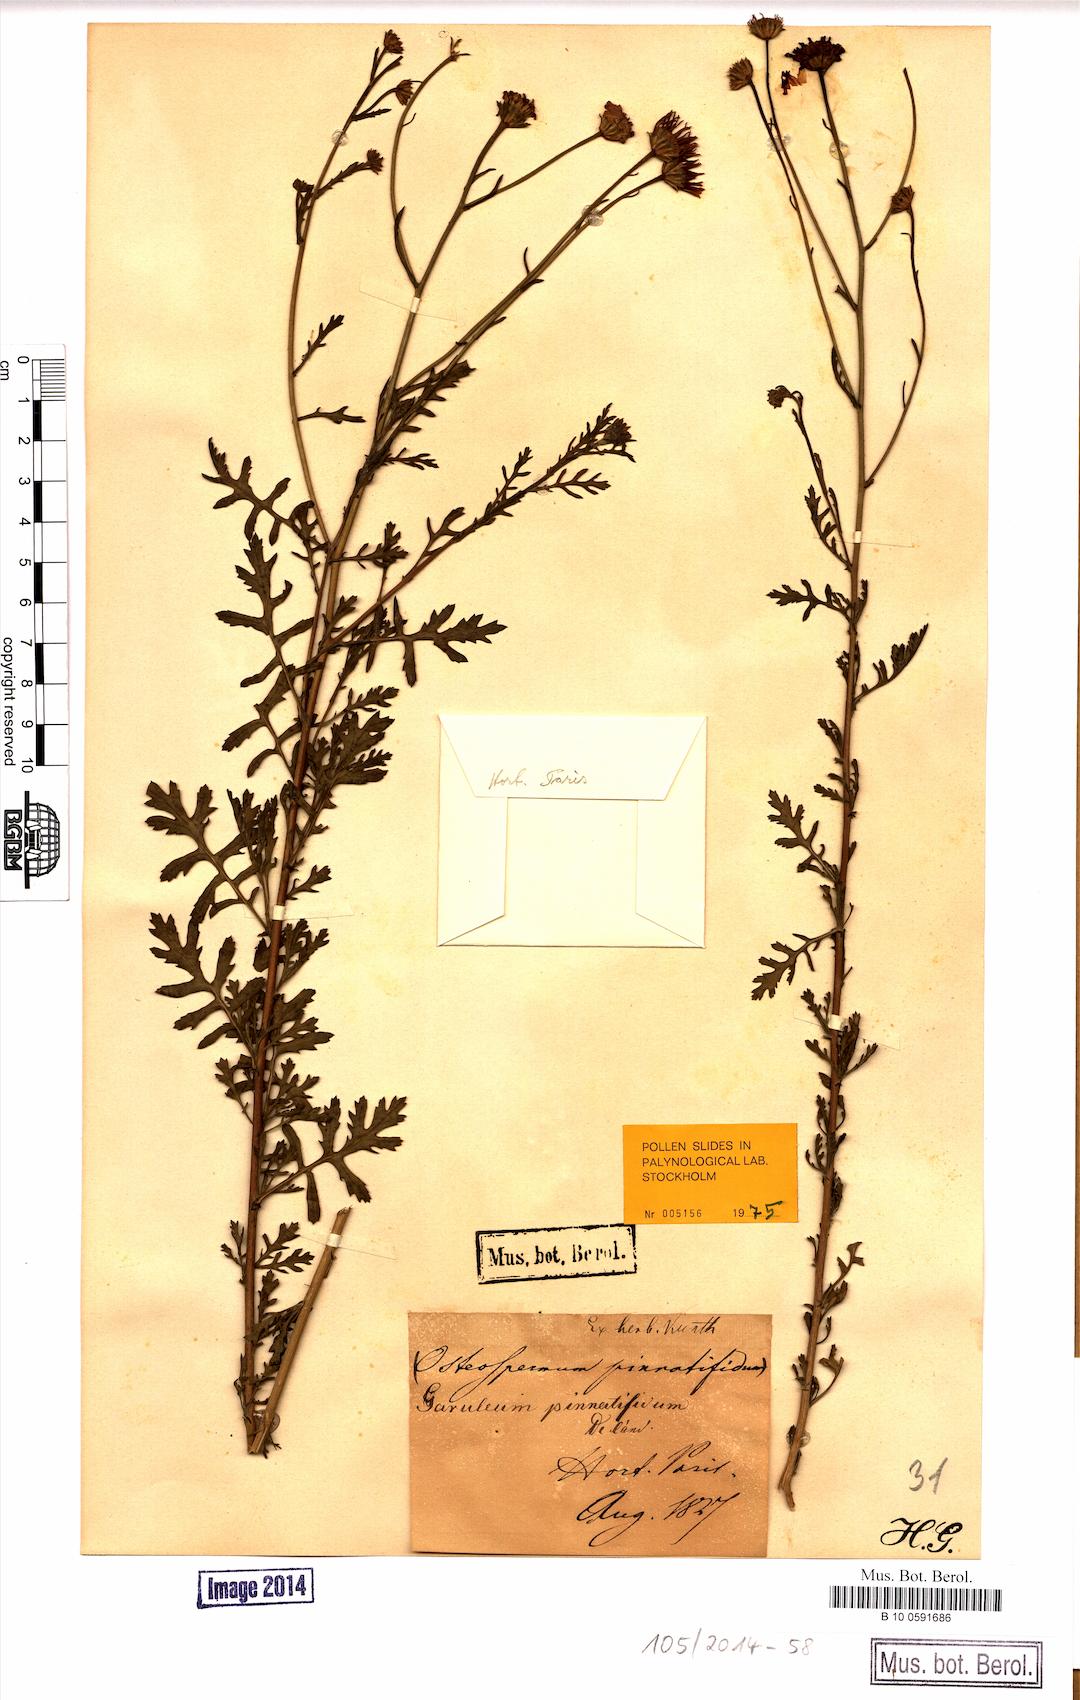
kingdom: Plantae
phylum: Tracheophyta
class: Magnoliopsida
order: Asterales
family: Asteraceae
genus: Garuleum
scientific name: Garuleum pinnatifidum
